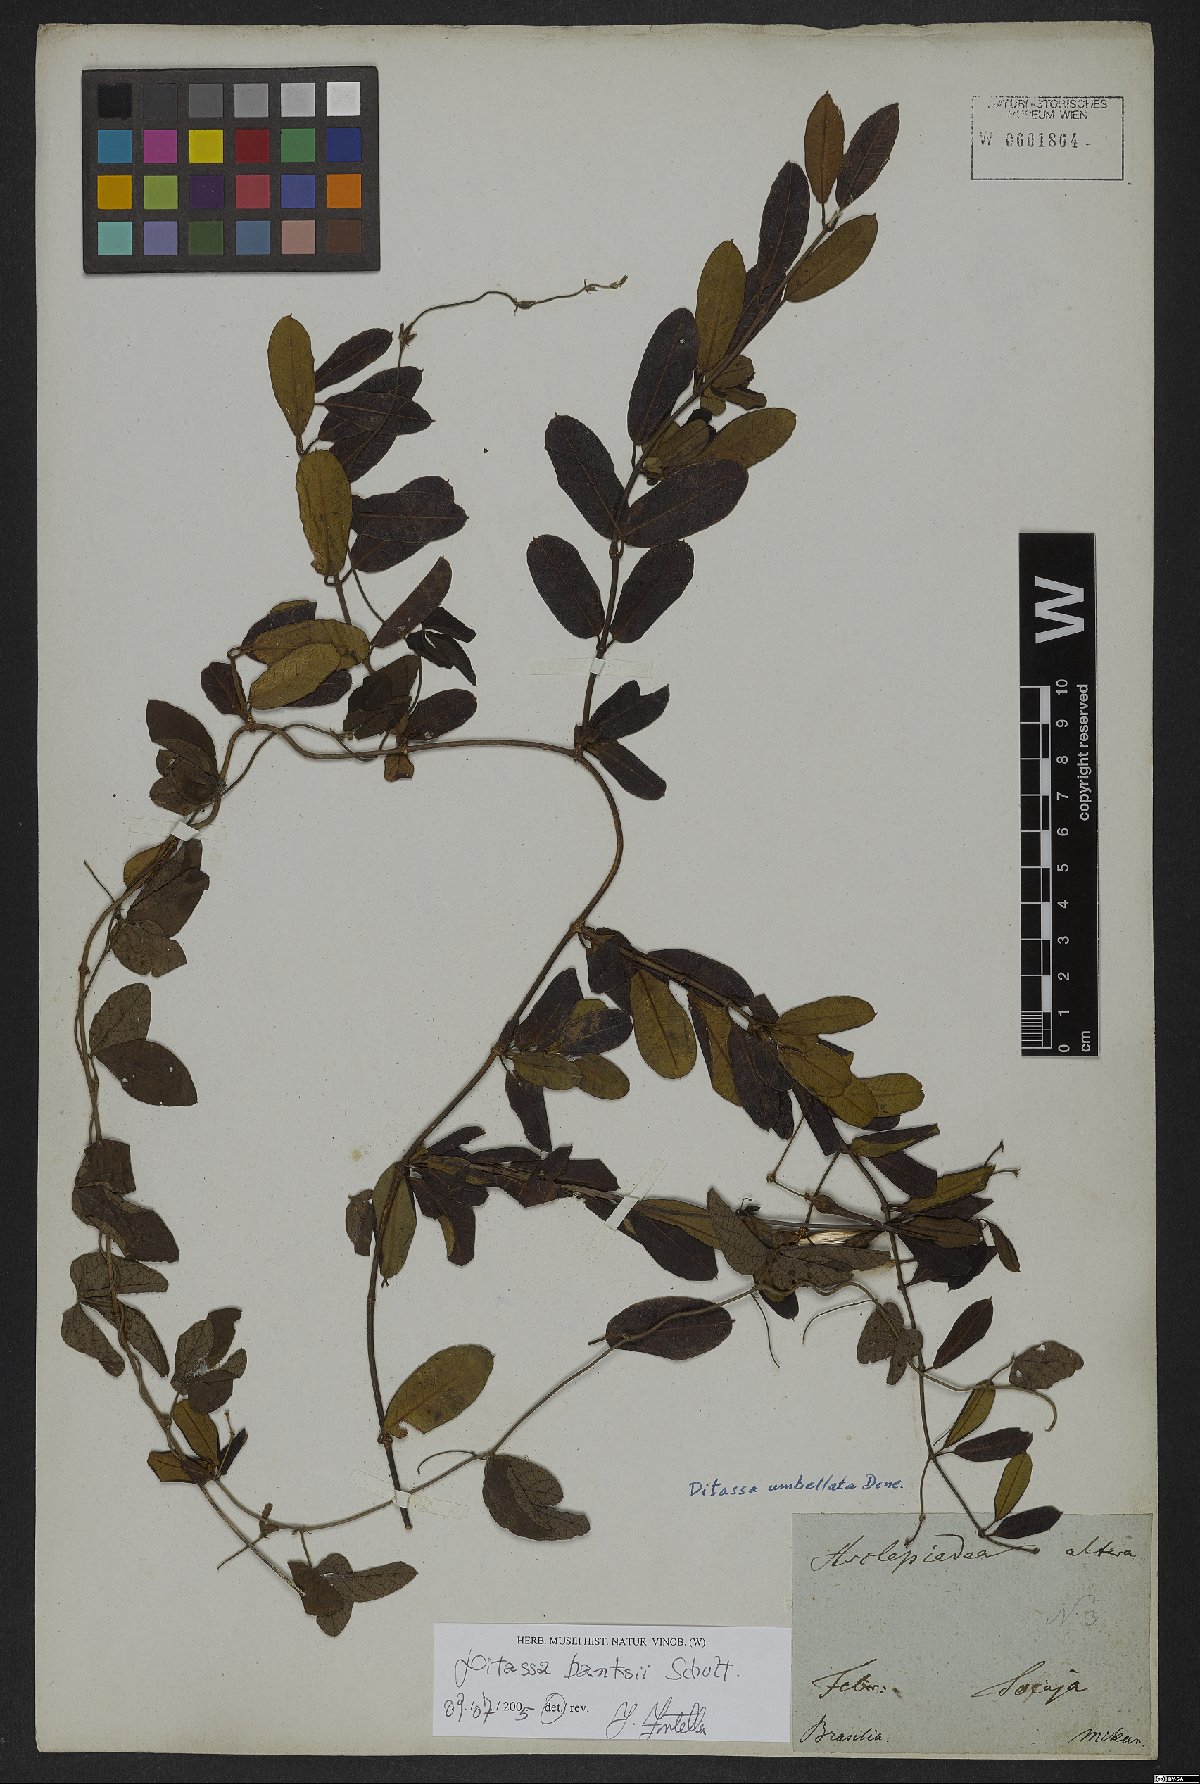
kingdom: Plantae
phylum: Tracheophyta
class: Magnoliopsida
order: Gentianales
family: Apocynaceae
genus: Ditassa
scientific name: Ditassa banksii
